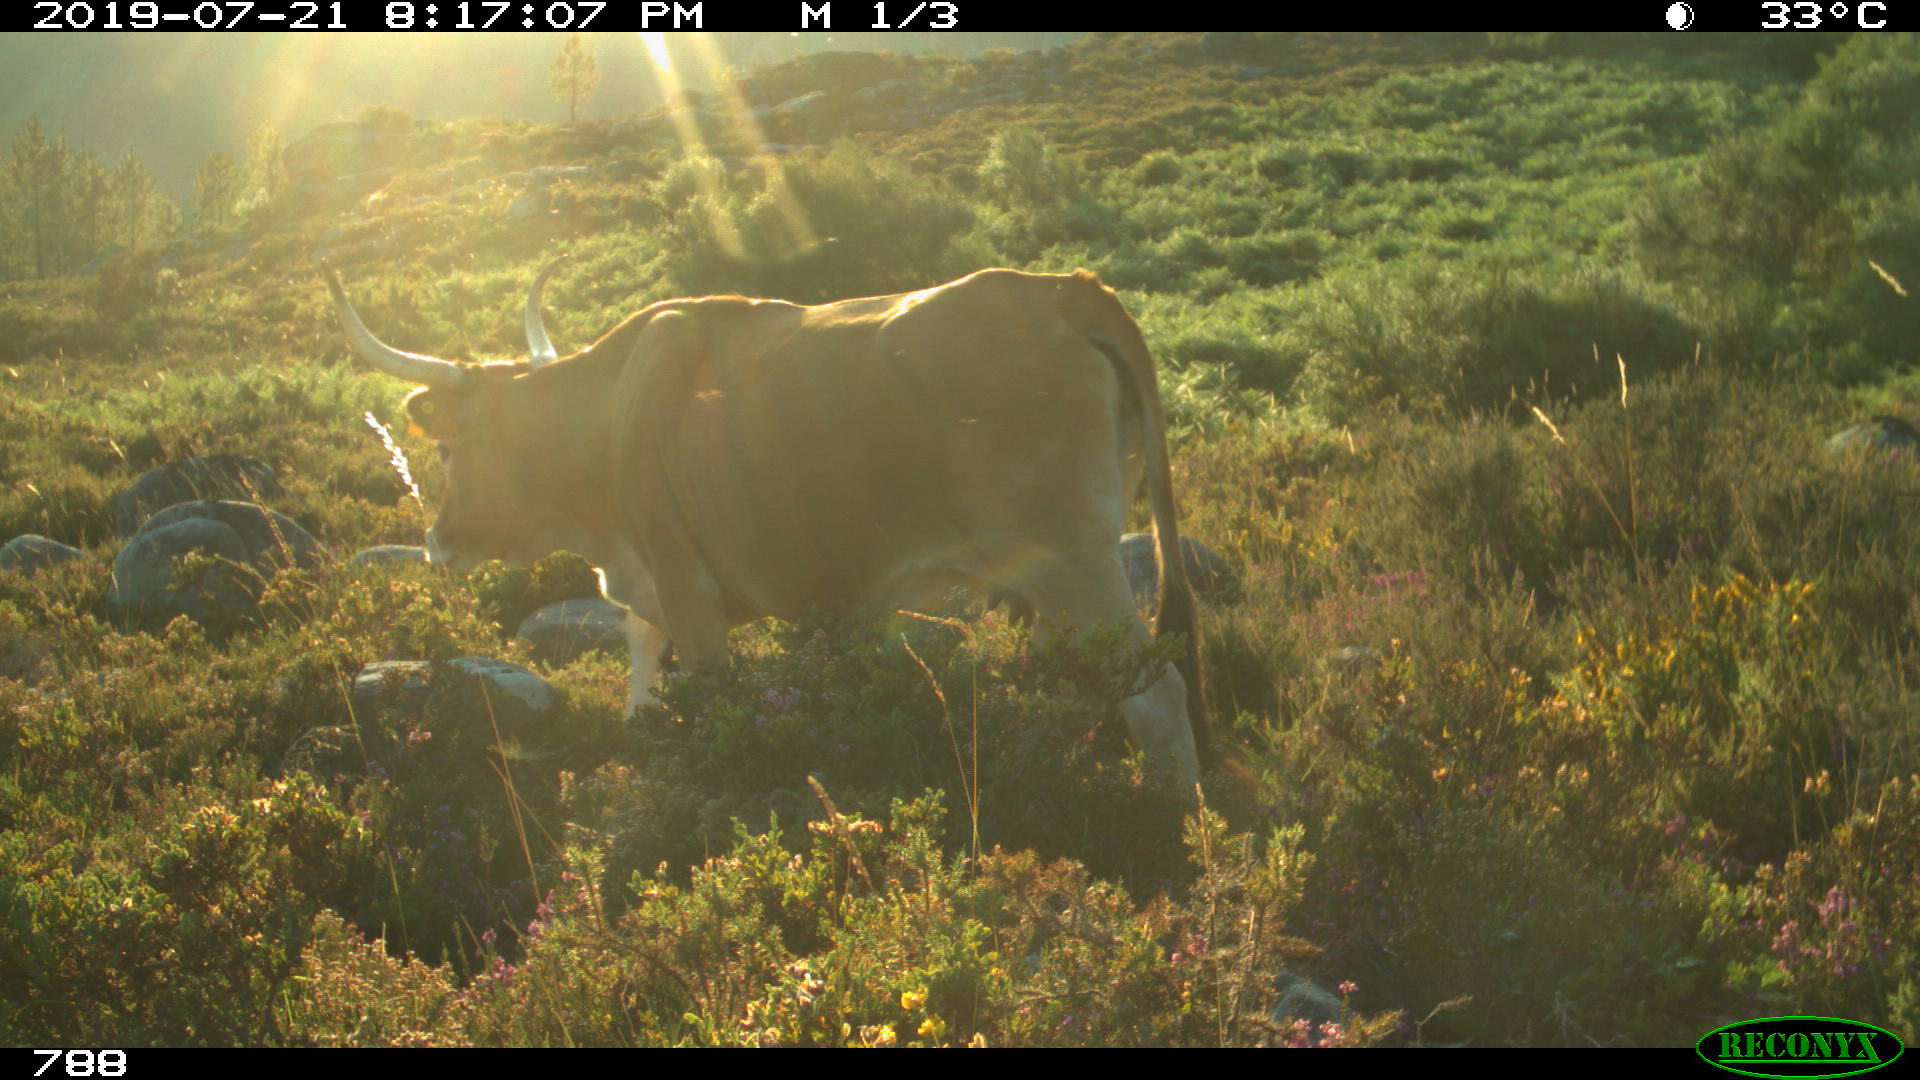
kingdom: Animalia
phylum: Chordata
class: Mammalia
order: Artiodactyla
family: Bovidae
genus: Bos
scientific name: Bos taurus
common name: Domesticated cattle
